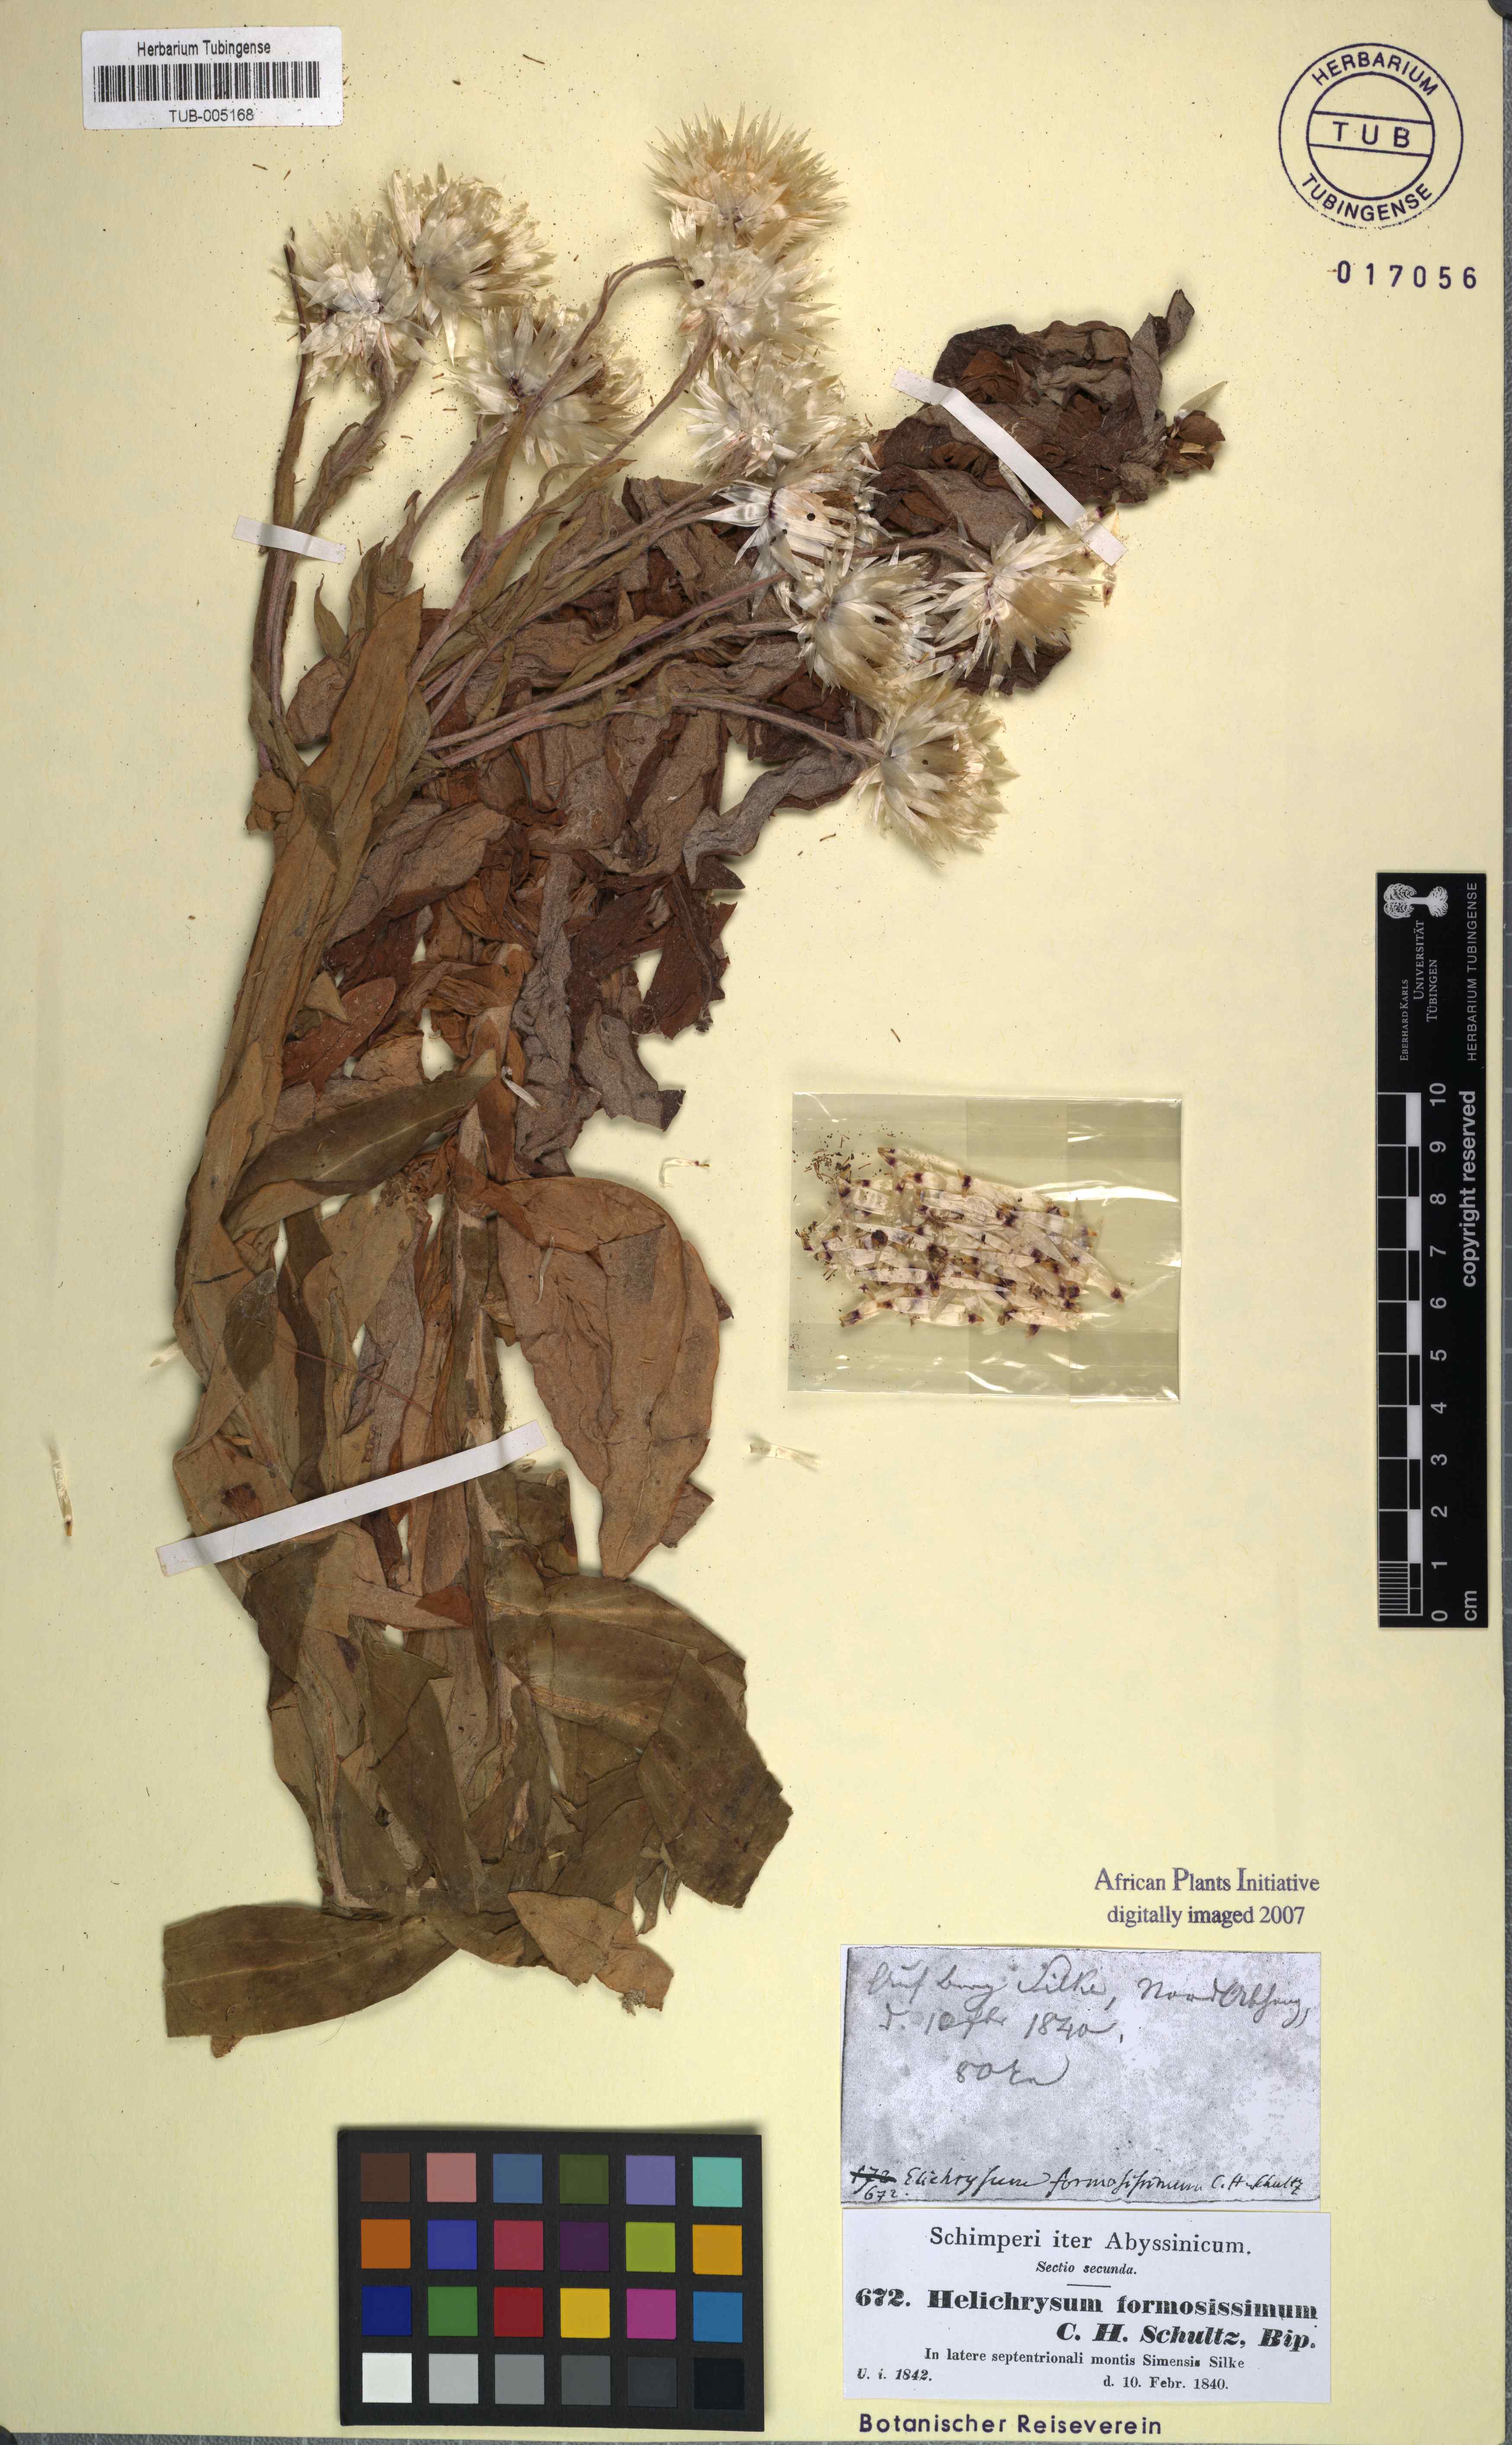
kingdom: Plantae
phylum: Tracheophyta
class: Magnoliopsida
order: Asterales
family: Asteraceae
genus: Helichrysum
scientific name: Helichrysum elegantissimum
